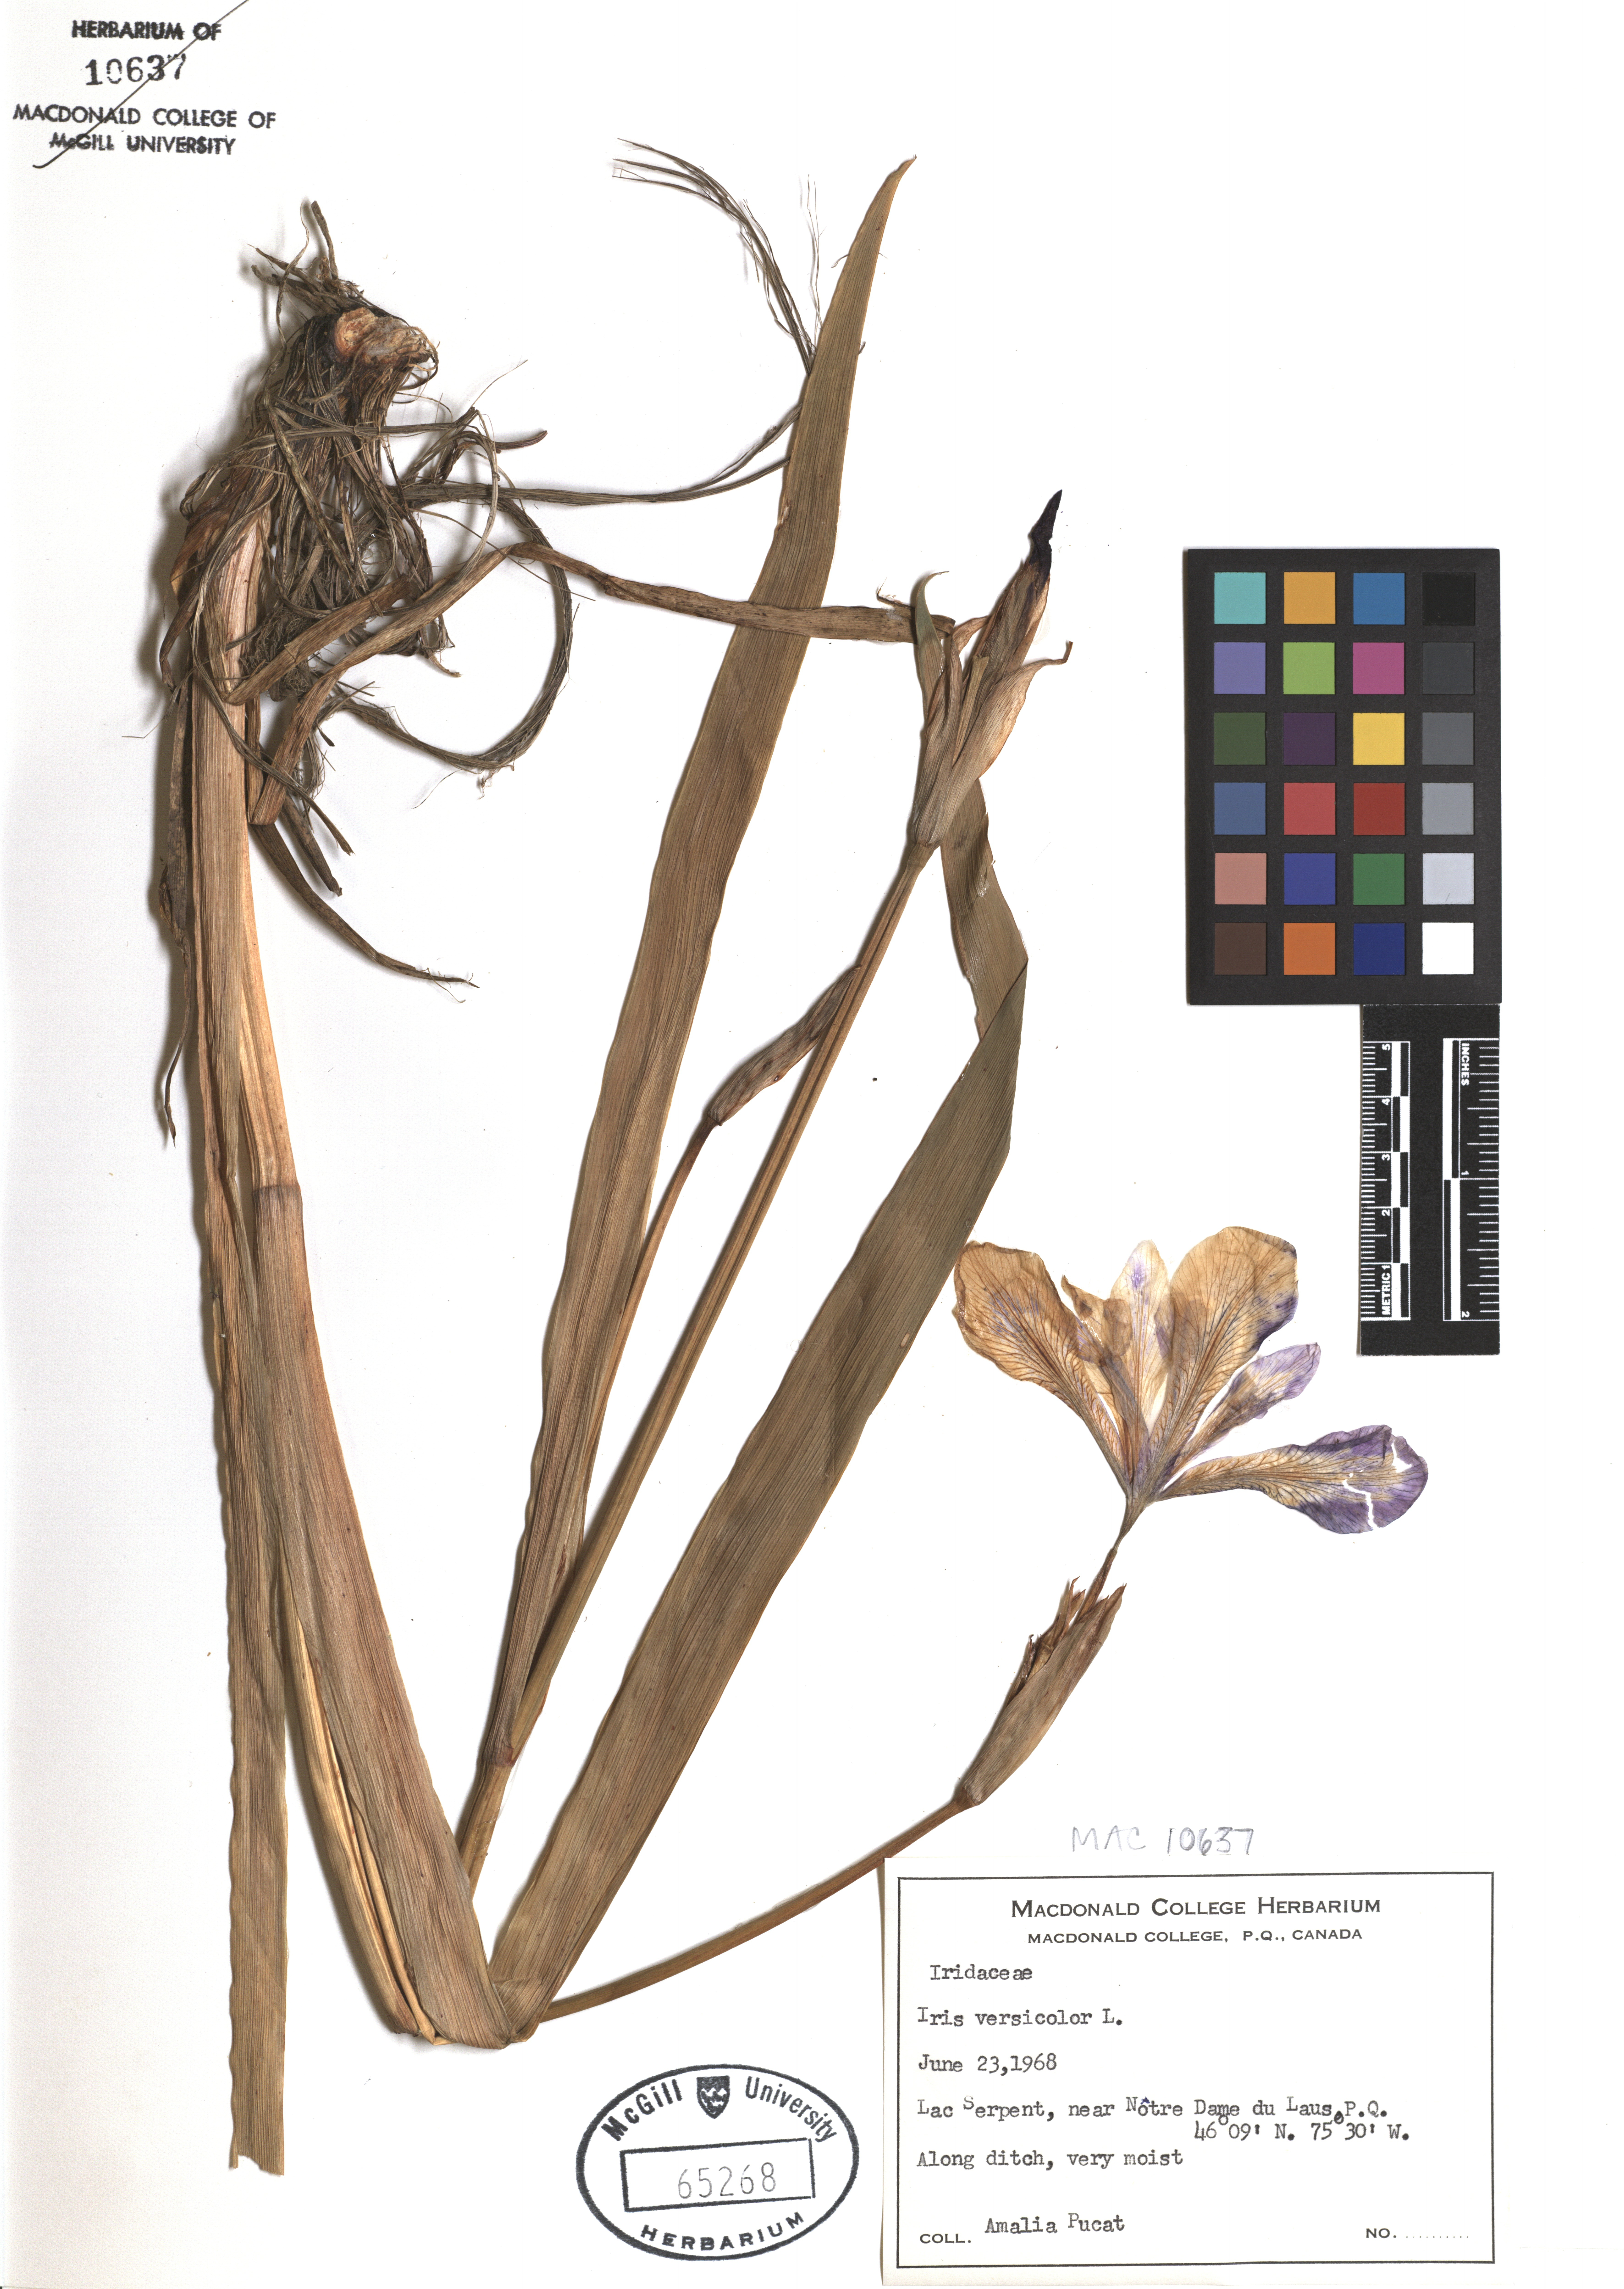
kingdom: Plantae
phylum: Tracheophyta
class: Liliopsida
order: Asparagales
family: Iridaceae
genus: Iris
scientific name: Iris versicolor
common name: Purple iris
